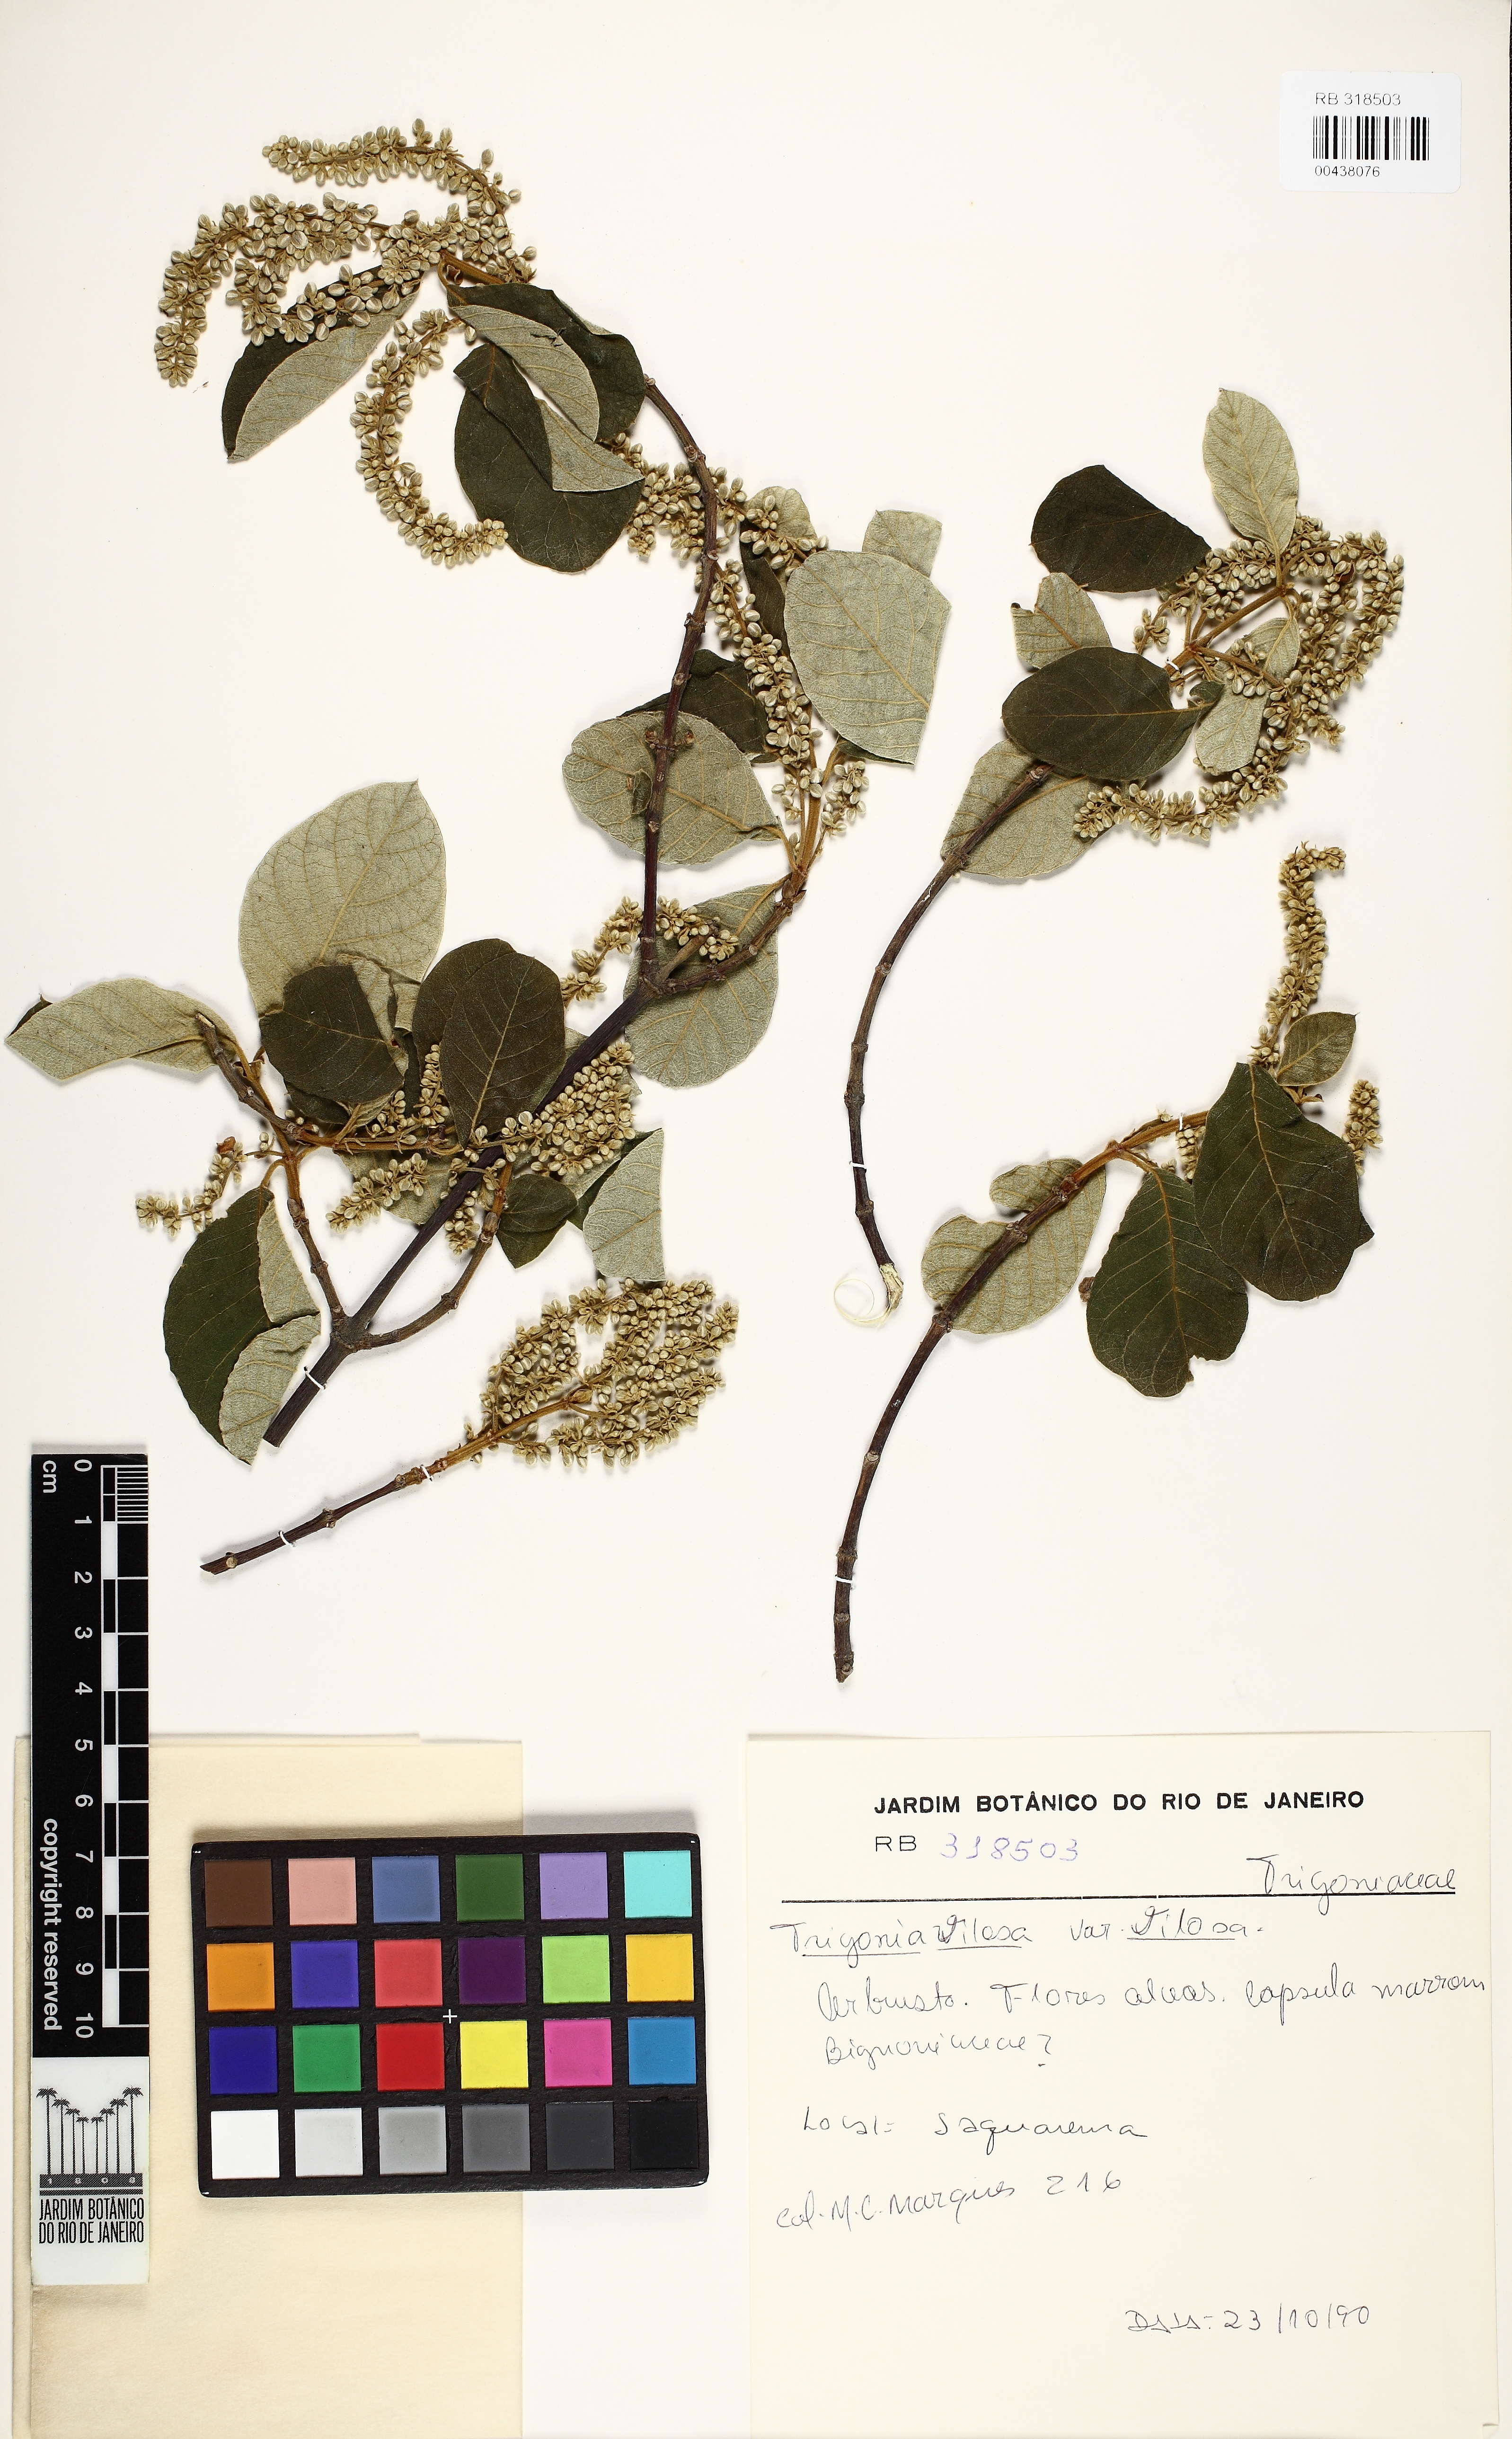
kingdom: Plantae
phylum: Tracheophyta
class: Magnoliopsida
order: Malpighiales
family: Trigoniaceae
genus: Trigonia
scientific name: Trigonia villosa
